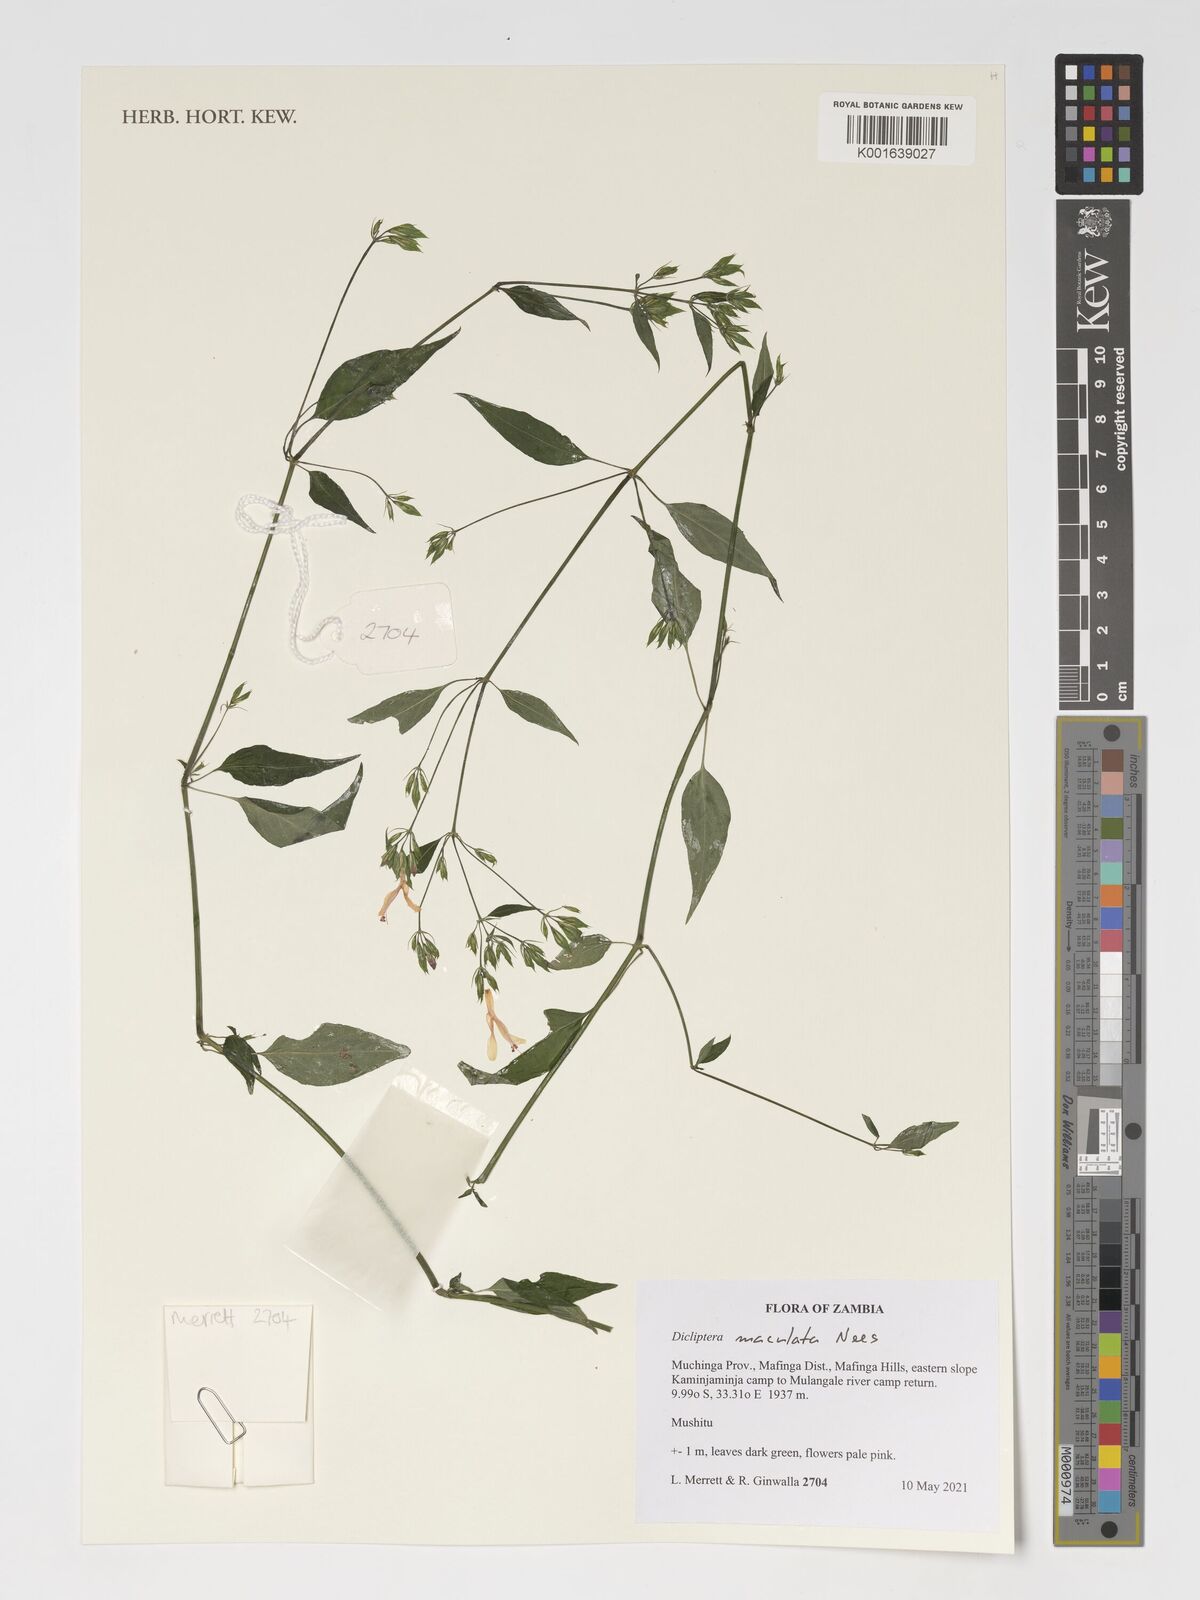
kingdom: Plantae
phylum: Tracheophyta
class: Magnoliopsida
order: Lamiales
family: Acanthaceae
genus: Dicliptera
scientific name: Dicliptera maculata
